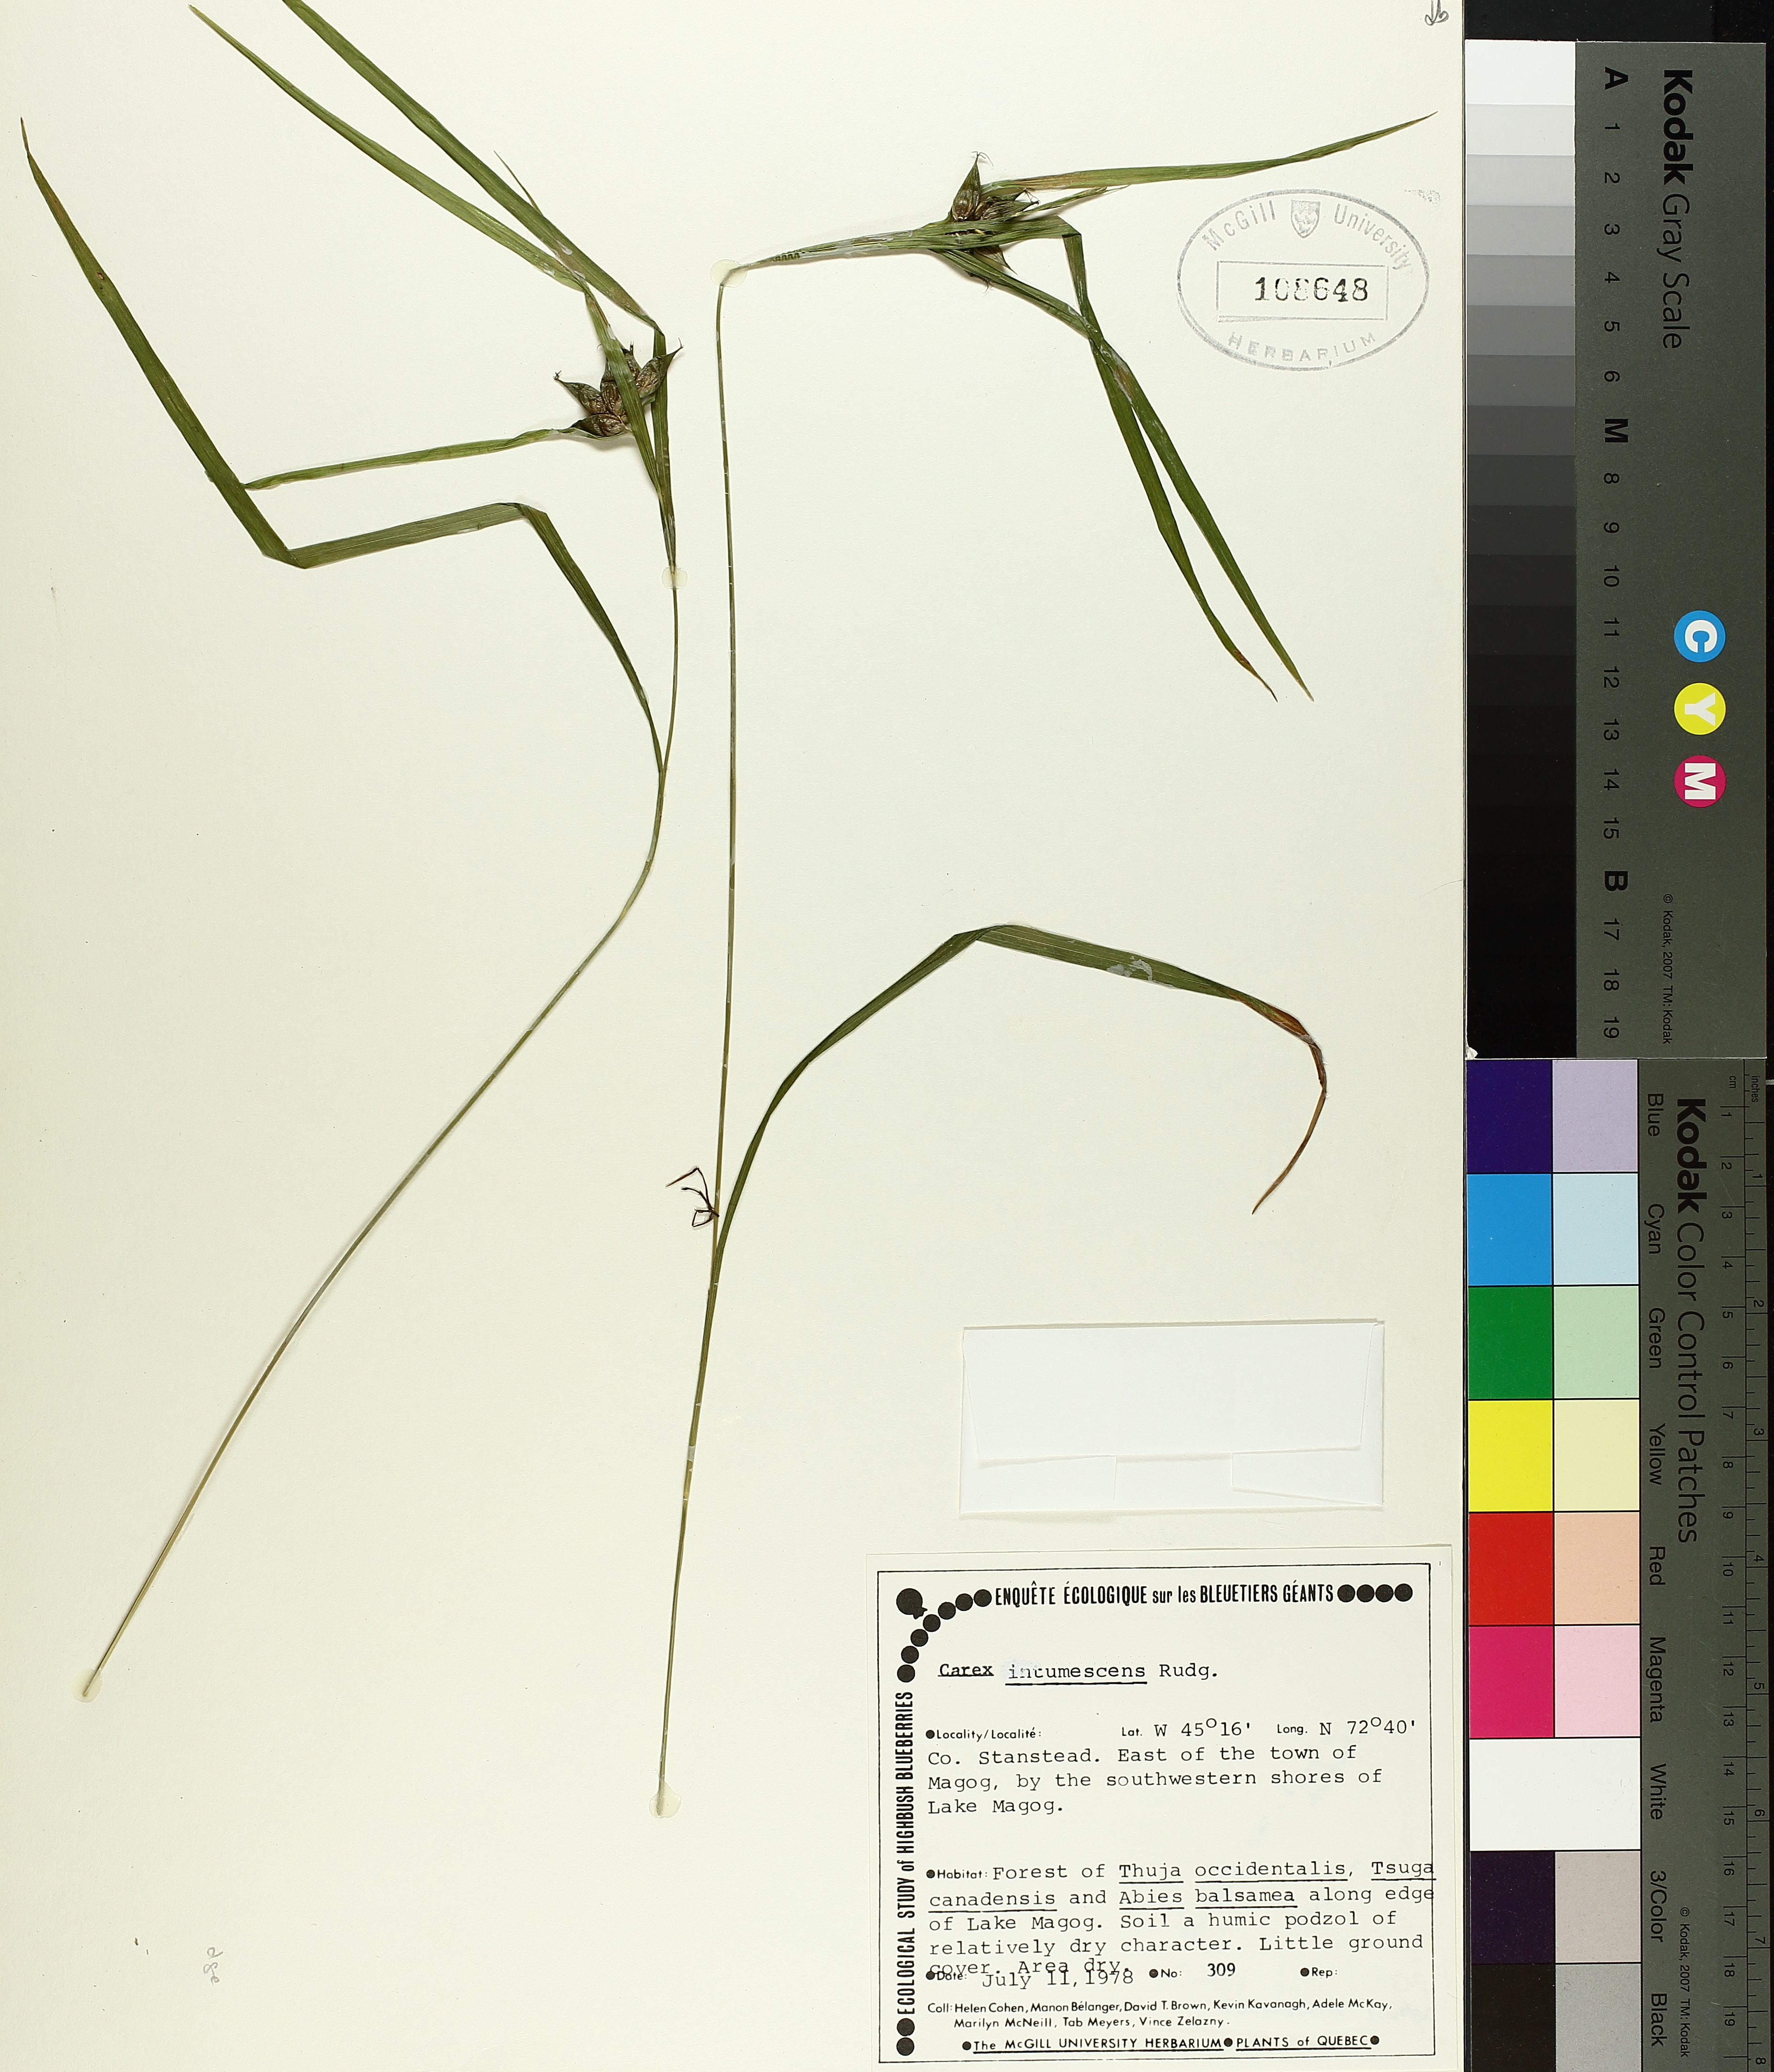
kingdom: Plantae
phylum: Tracheophyta
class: Liliopsida
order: Poales
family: Cyperaceae
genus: Carex
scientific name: Carex intumescens
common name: Greater bladder sedge
